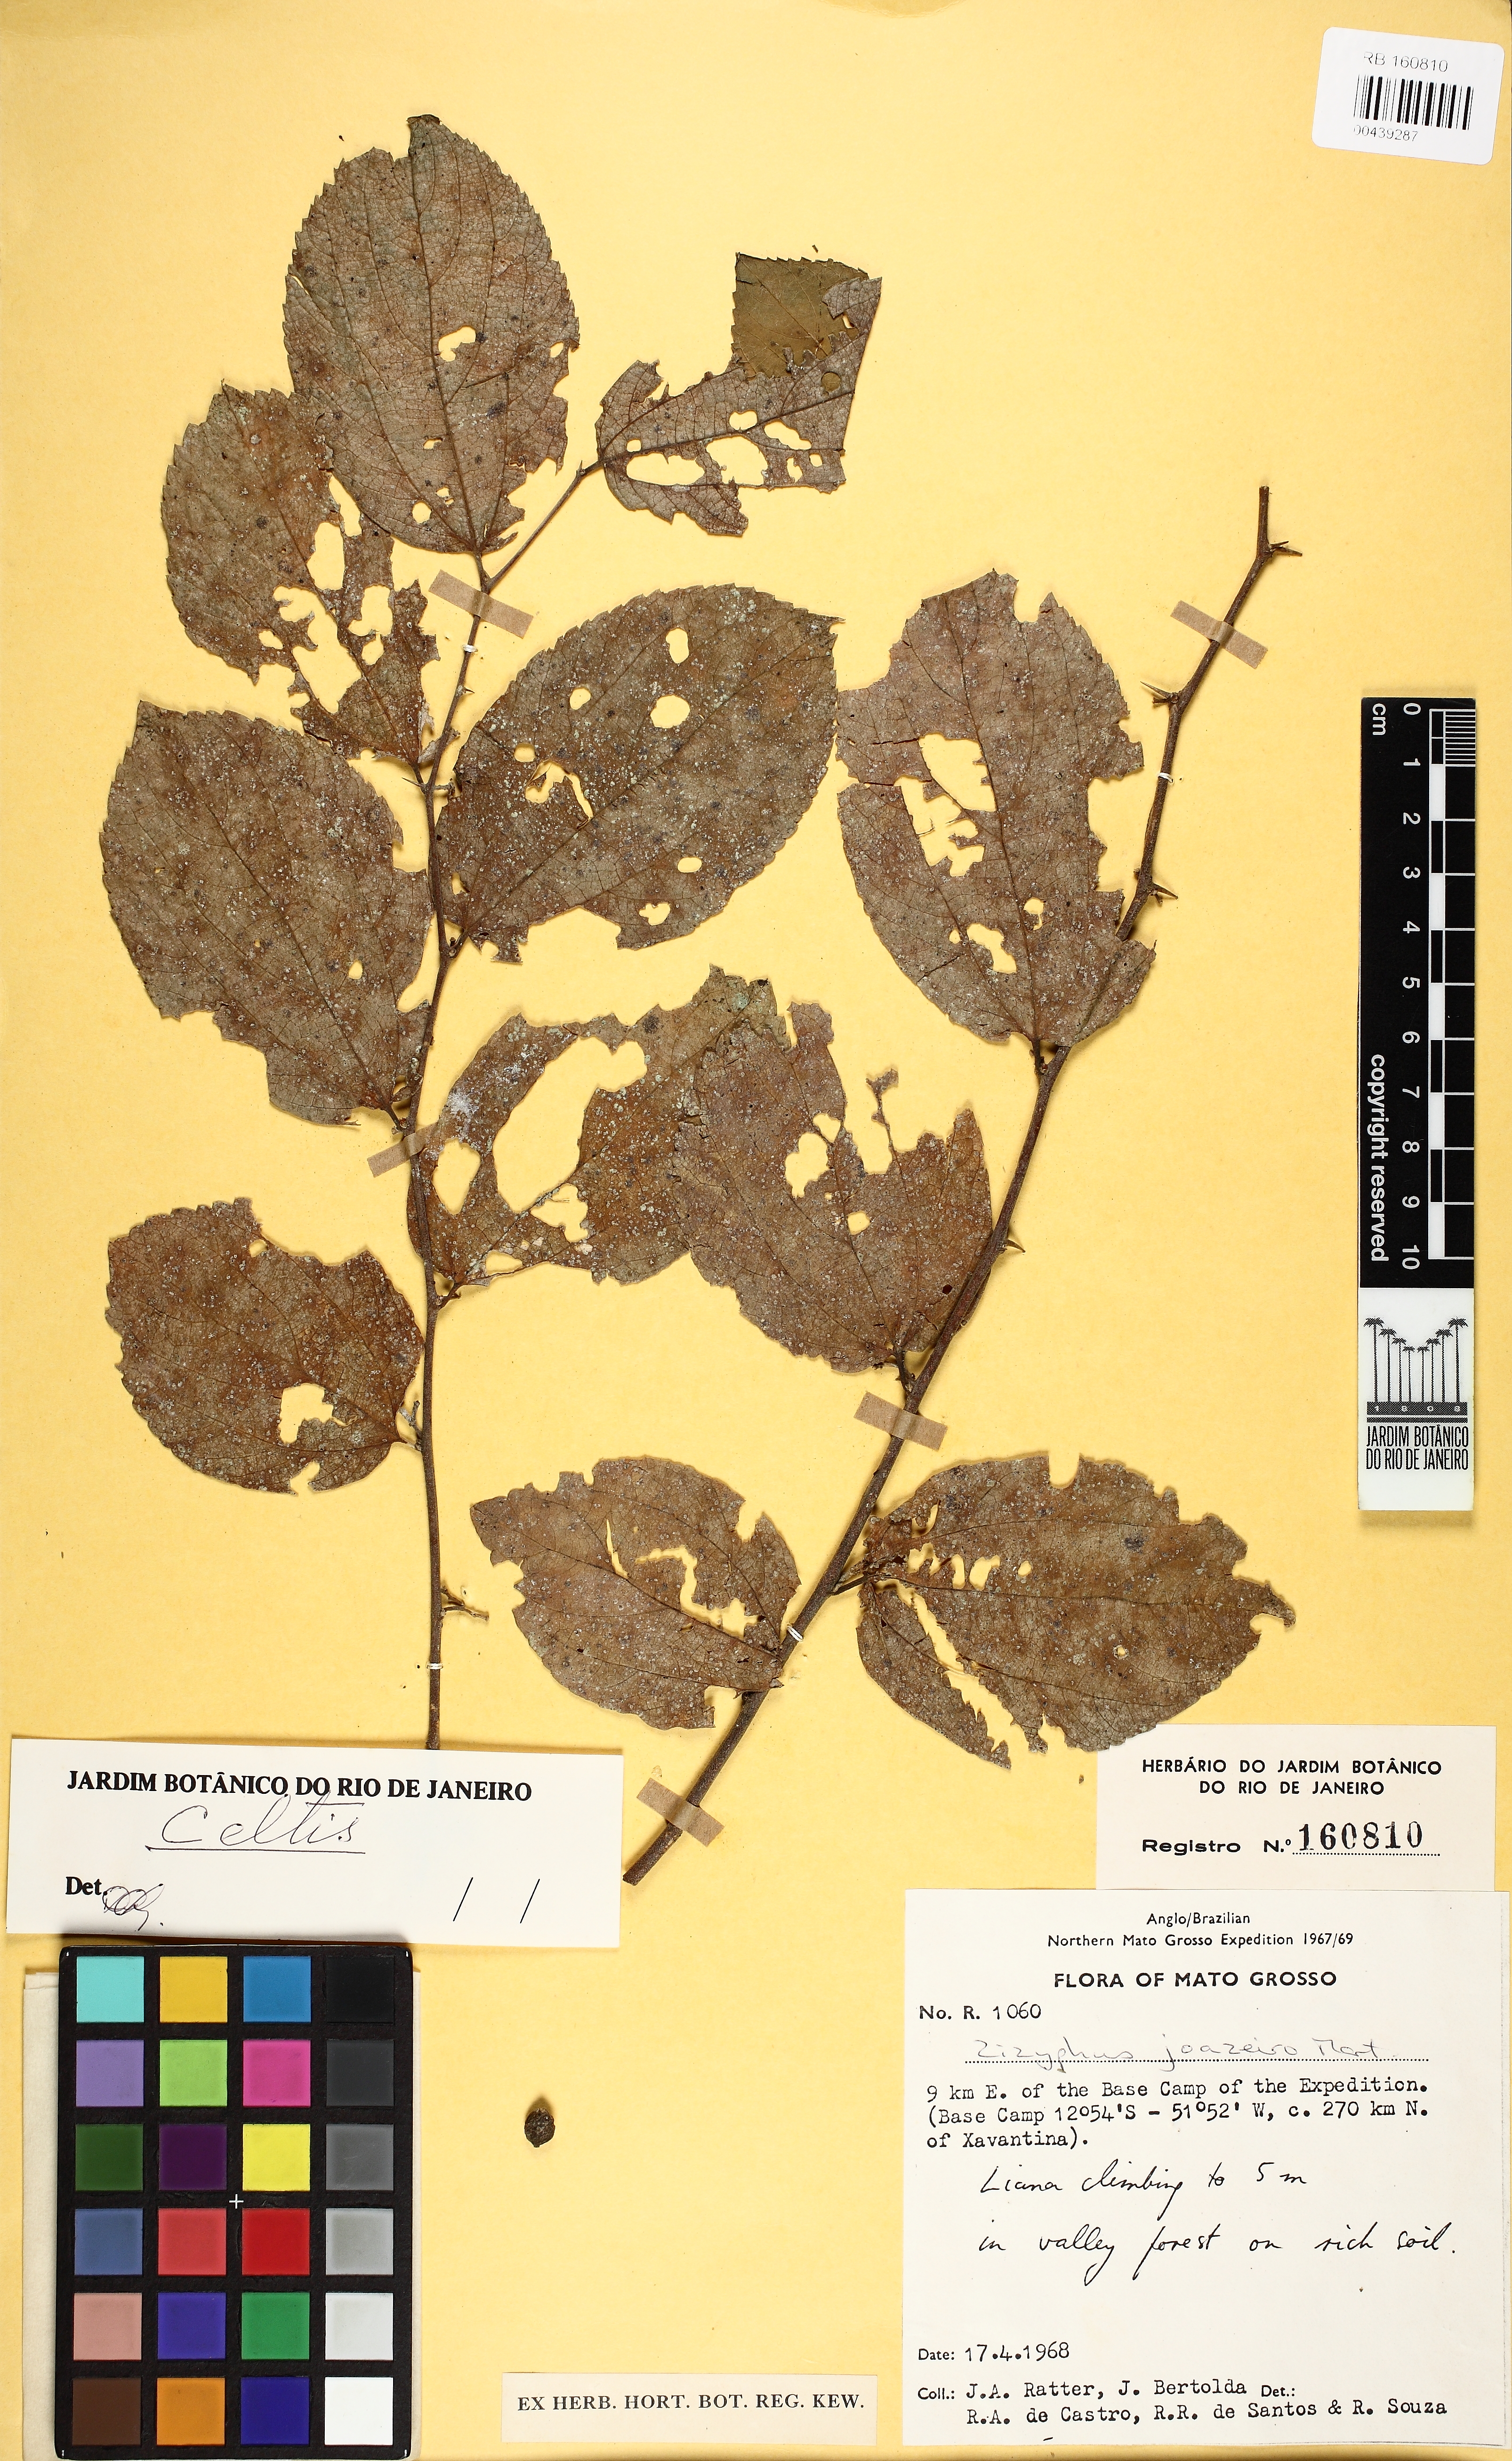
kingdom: Plantae
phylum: Tracheophyta
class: Magnoliopsida
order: Rosales
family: Cannabaceae
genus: Celtis
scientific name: Celtis spinosa
